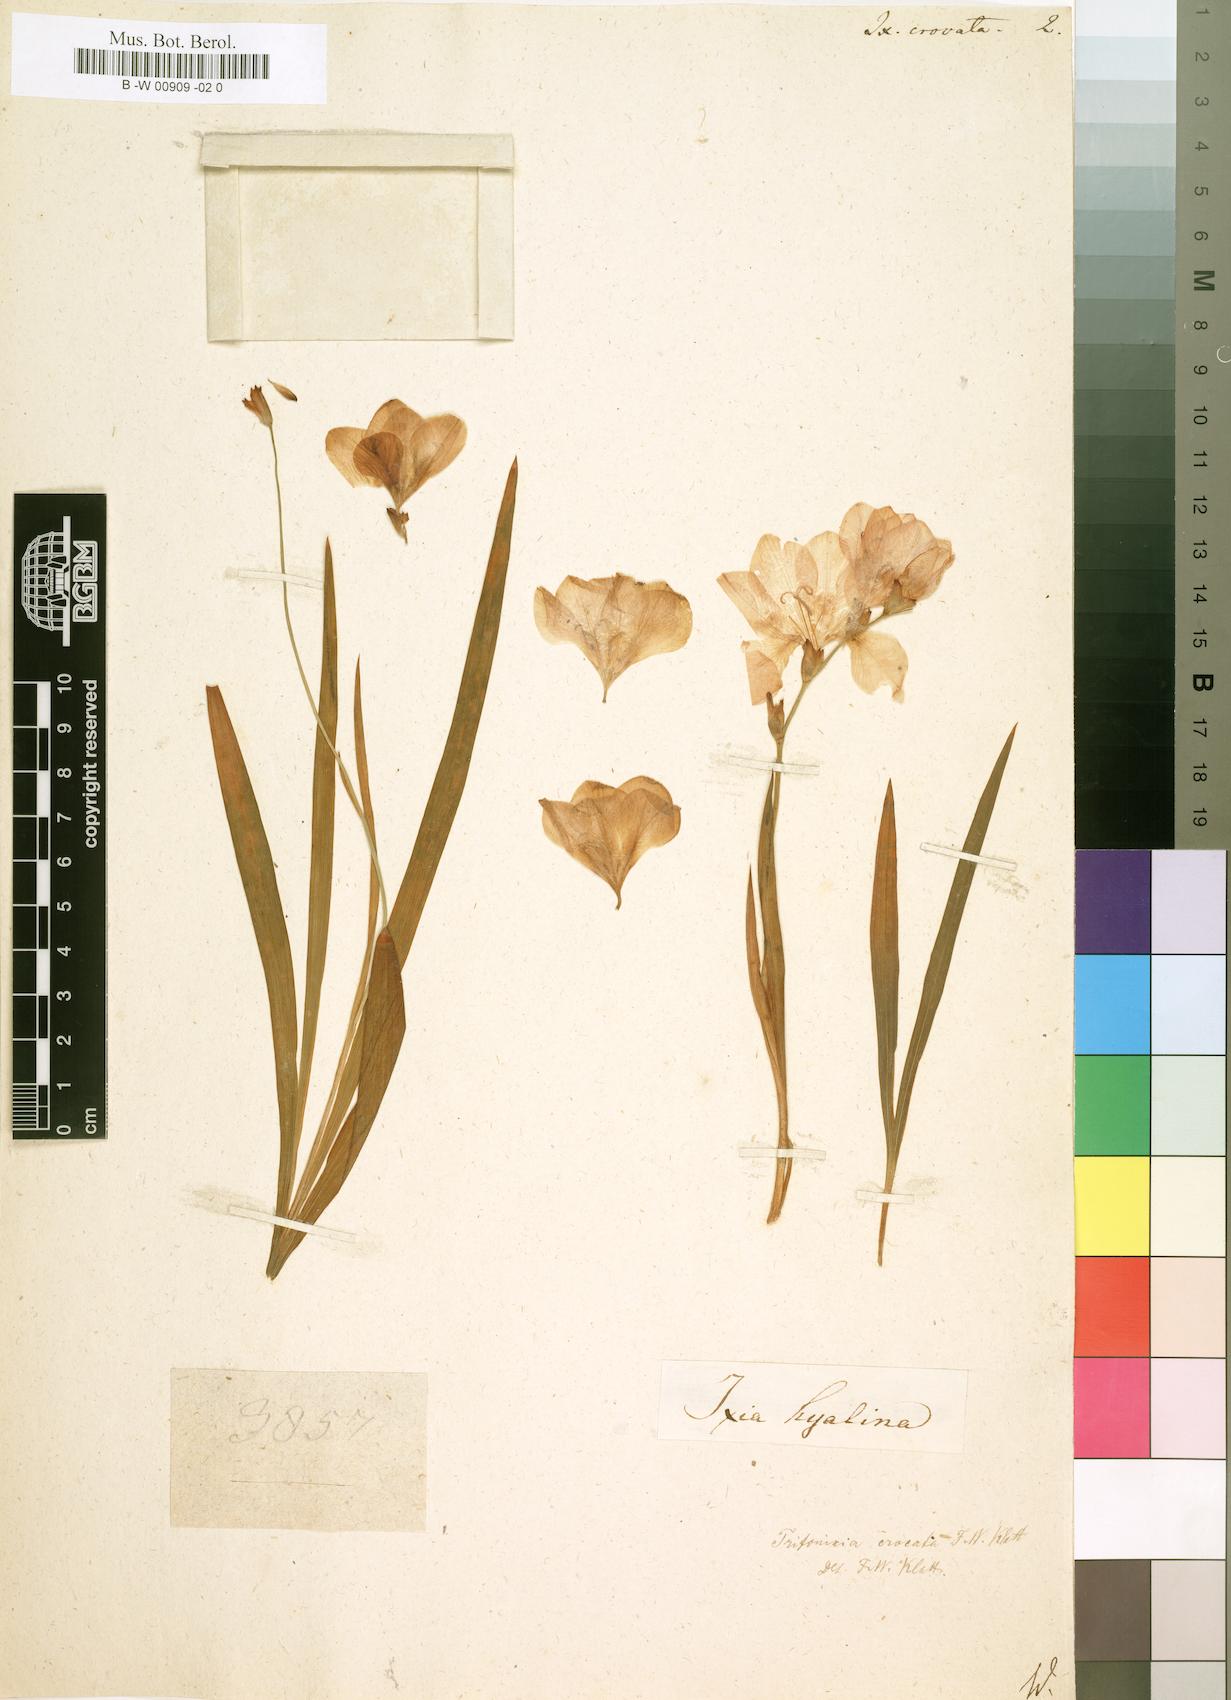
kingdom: Plantae
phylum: Tracheophyta
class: Liliopsida
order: Asparagales
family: Iridaceae
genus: Tritonia
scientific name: Tritonia crocata
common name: Flame-freesia
